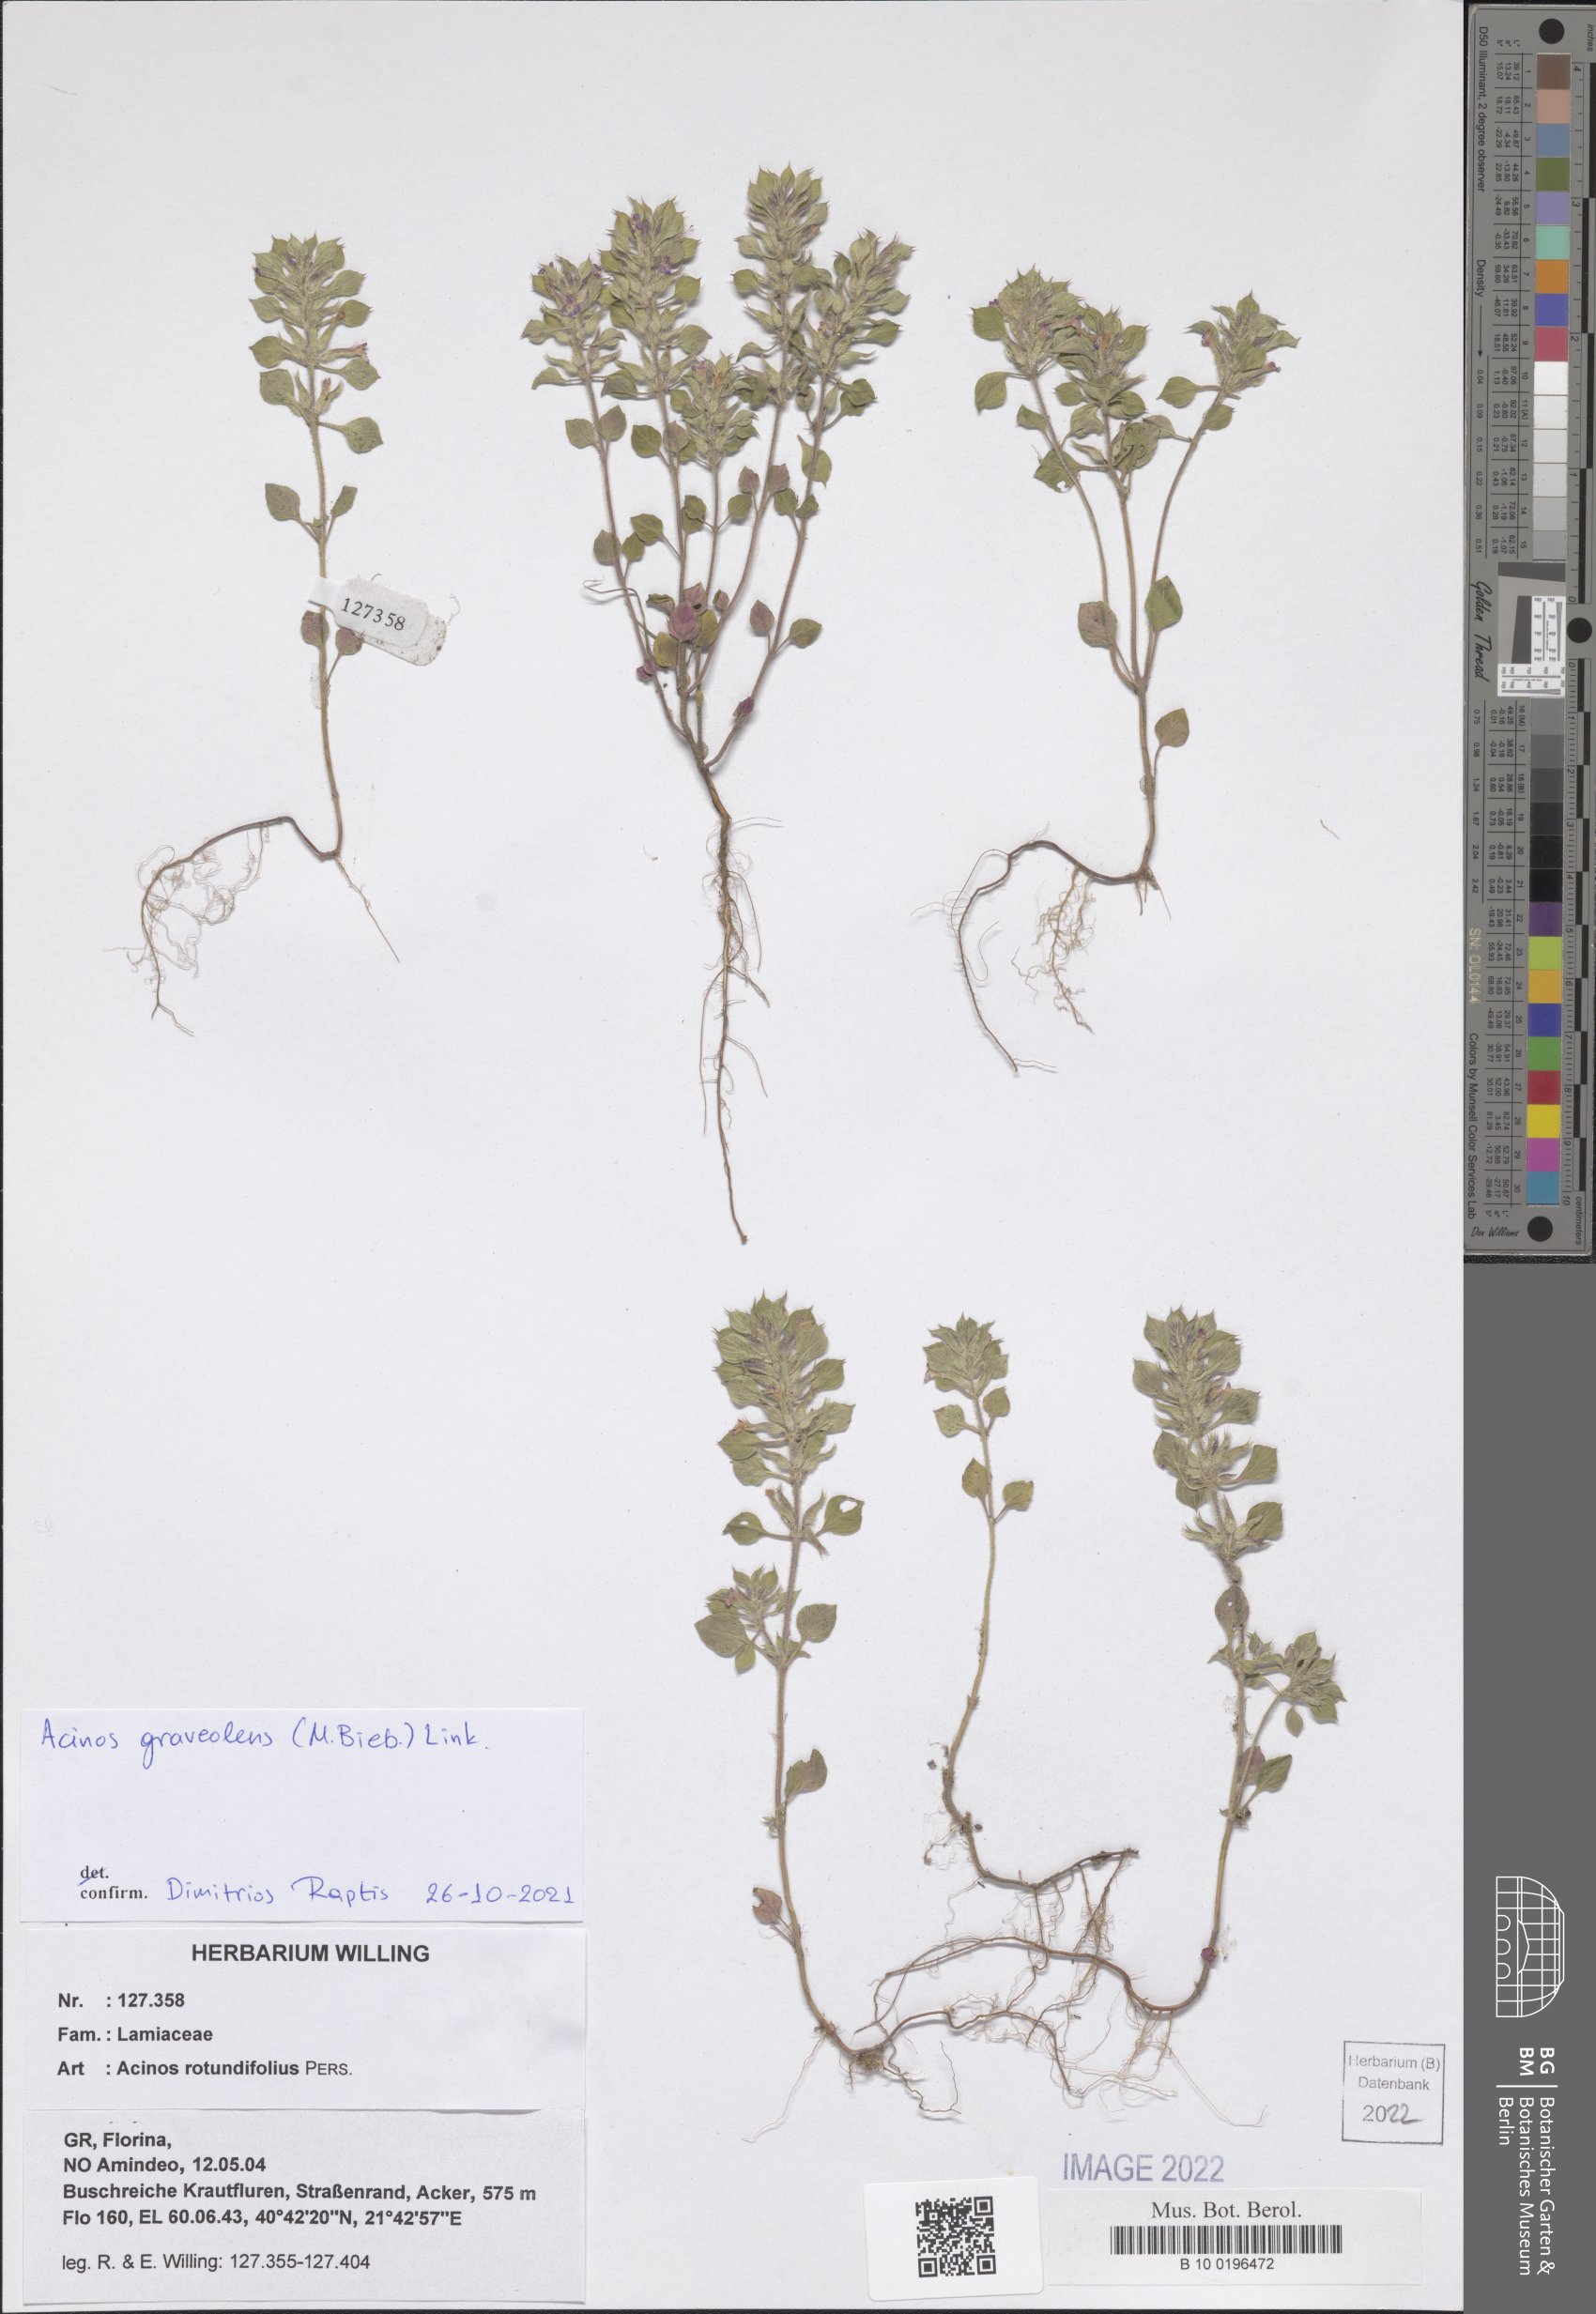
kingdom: Plantae
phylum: Tracheophyta
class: Magnoliopsida
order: Lamiales
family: Lamiaceae
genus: Clinopodium
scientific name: Clinopodium graveolens
